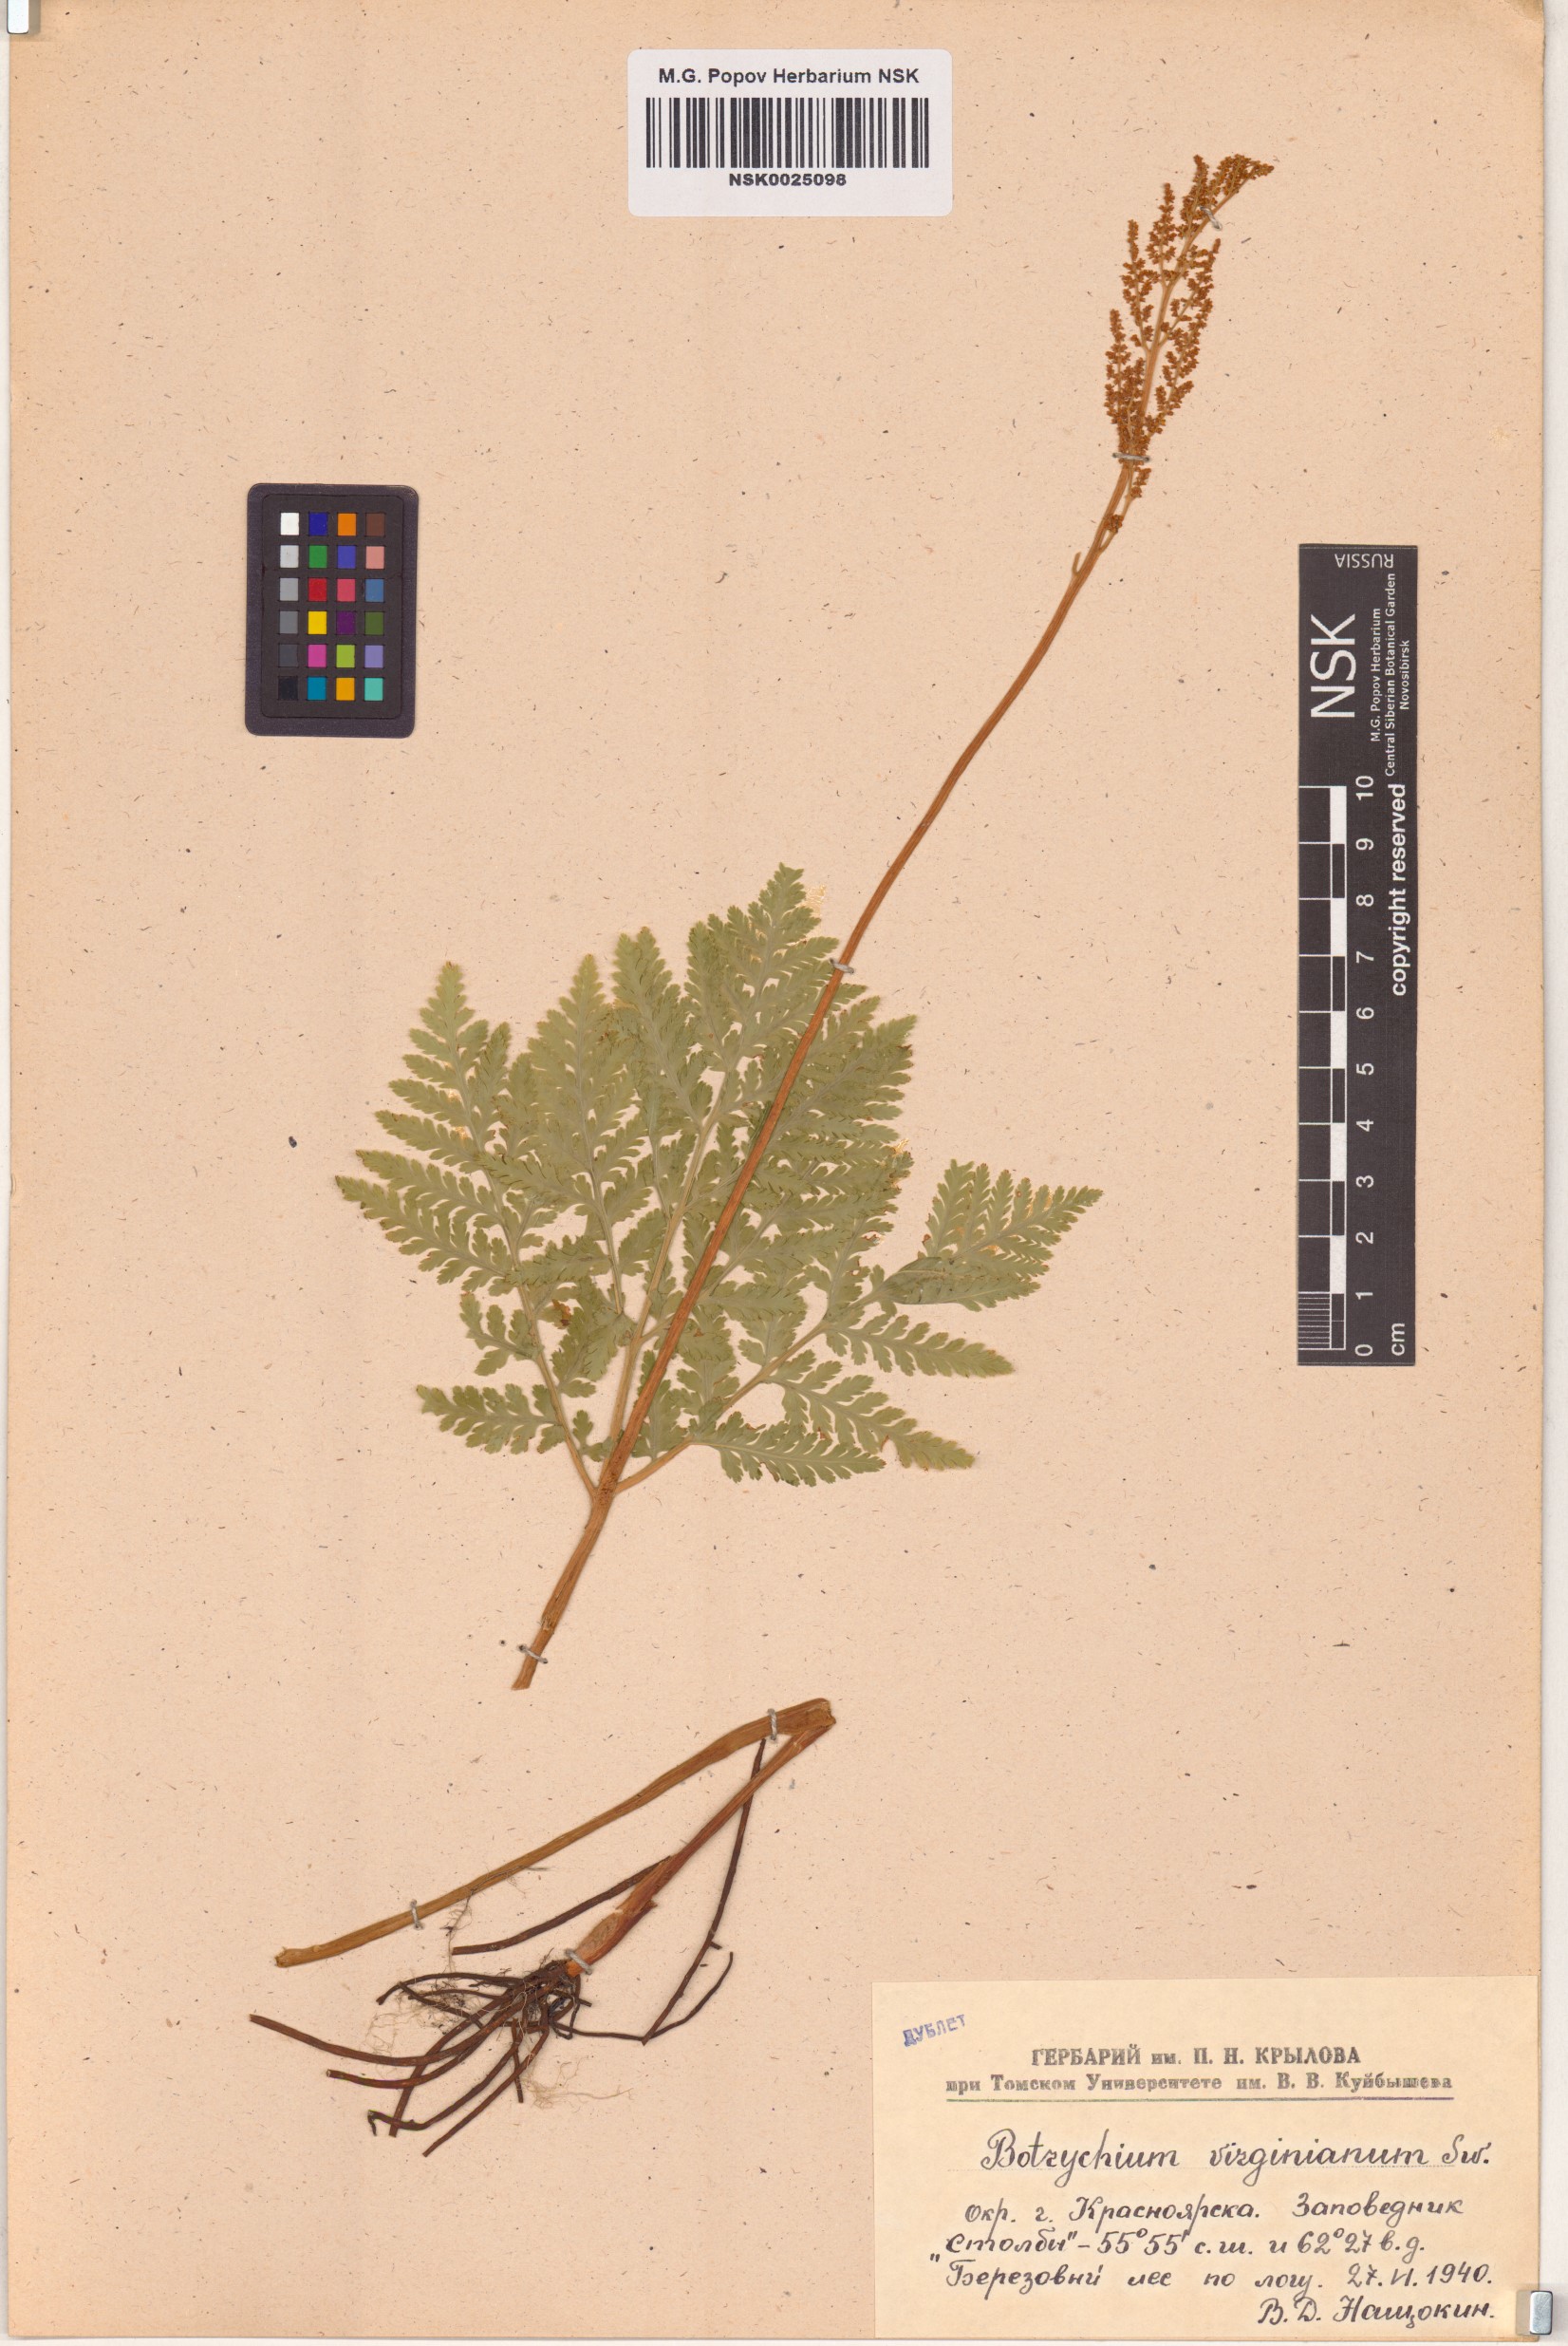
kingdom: Plantae
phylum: Tracheophyta
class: Polypodiopsida
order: Ophioglossales
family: Ophioglossaceae
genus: Botrypus
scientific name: Botrypus virginianus
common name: Common grapefern
